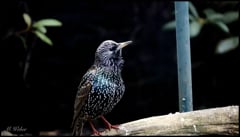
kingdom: Animalia
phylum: Chordata
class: Aves
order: Passeriformes
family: Sturnidae
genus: Sturnus
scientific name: Sturnus vulgaris
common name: Common starling
